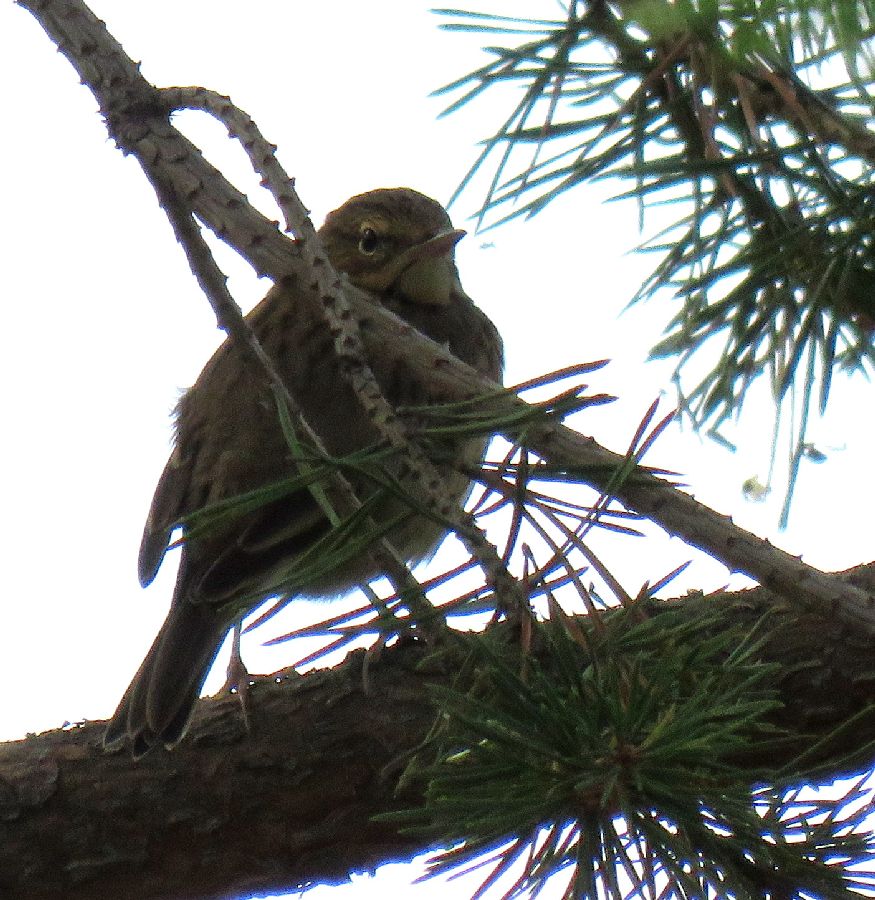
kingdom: Animalia
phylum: Chordata
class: Aves
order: Passeriformes
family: Motacillidae
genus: Anthus
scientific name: Anthus trivialis
